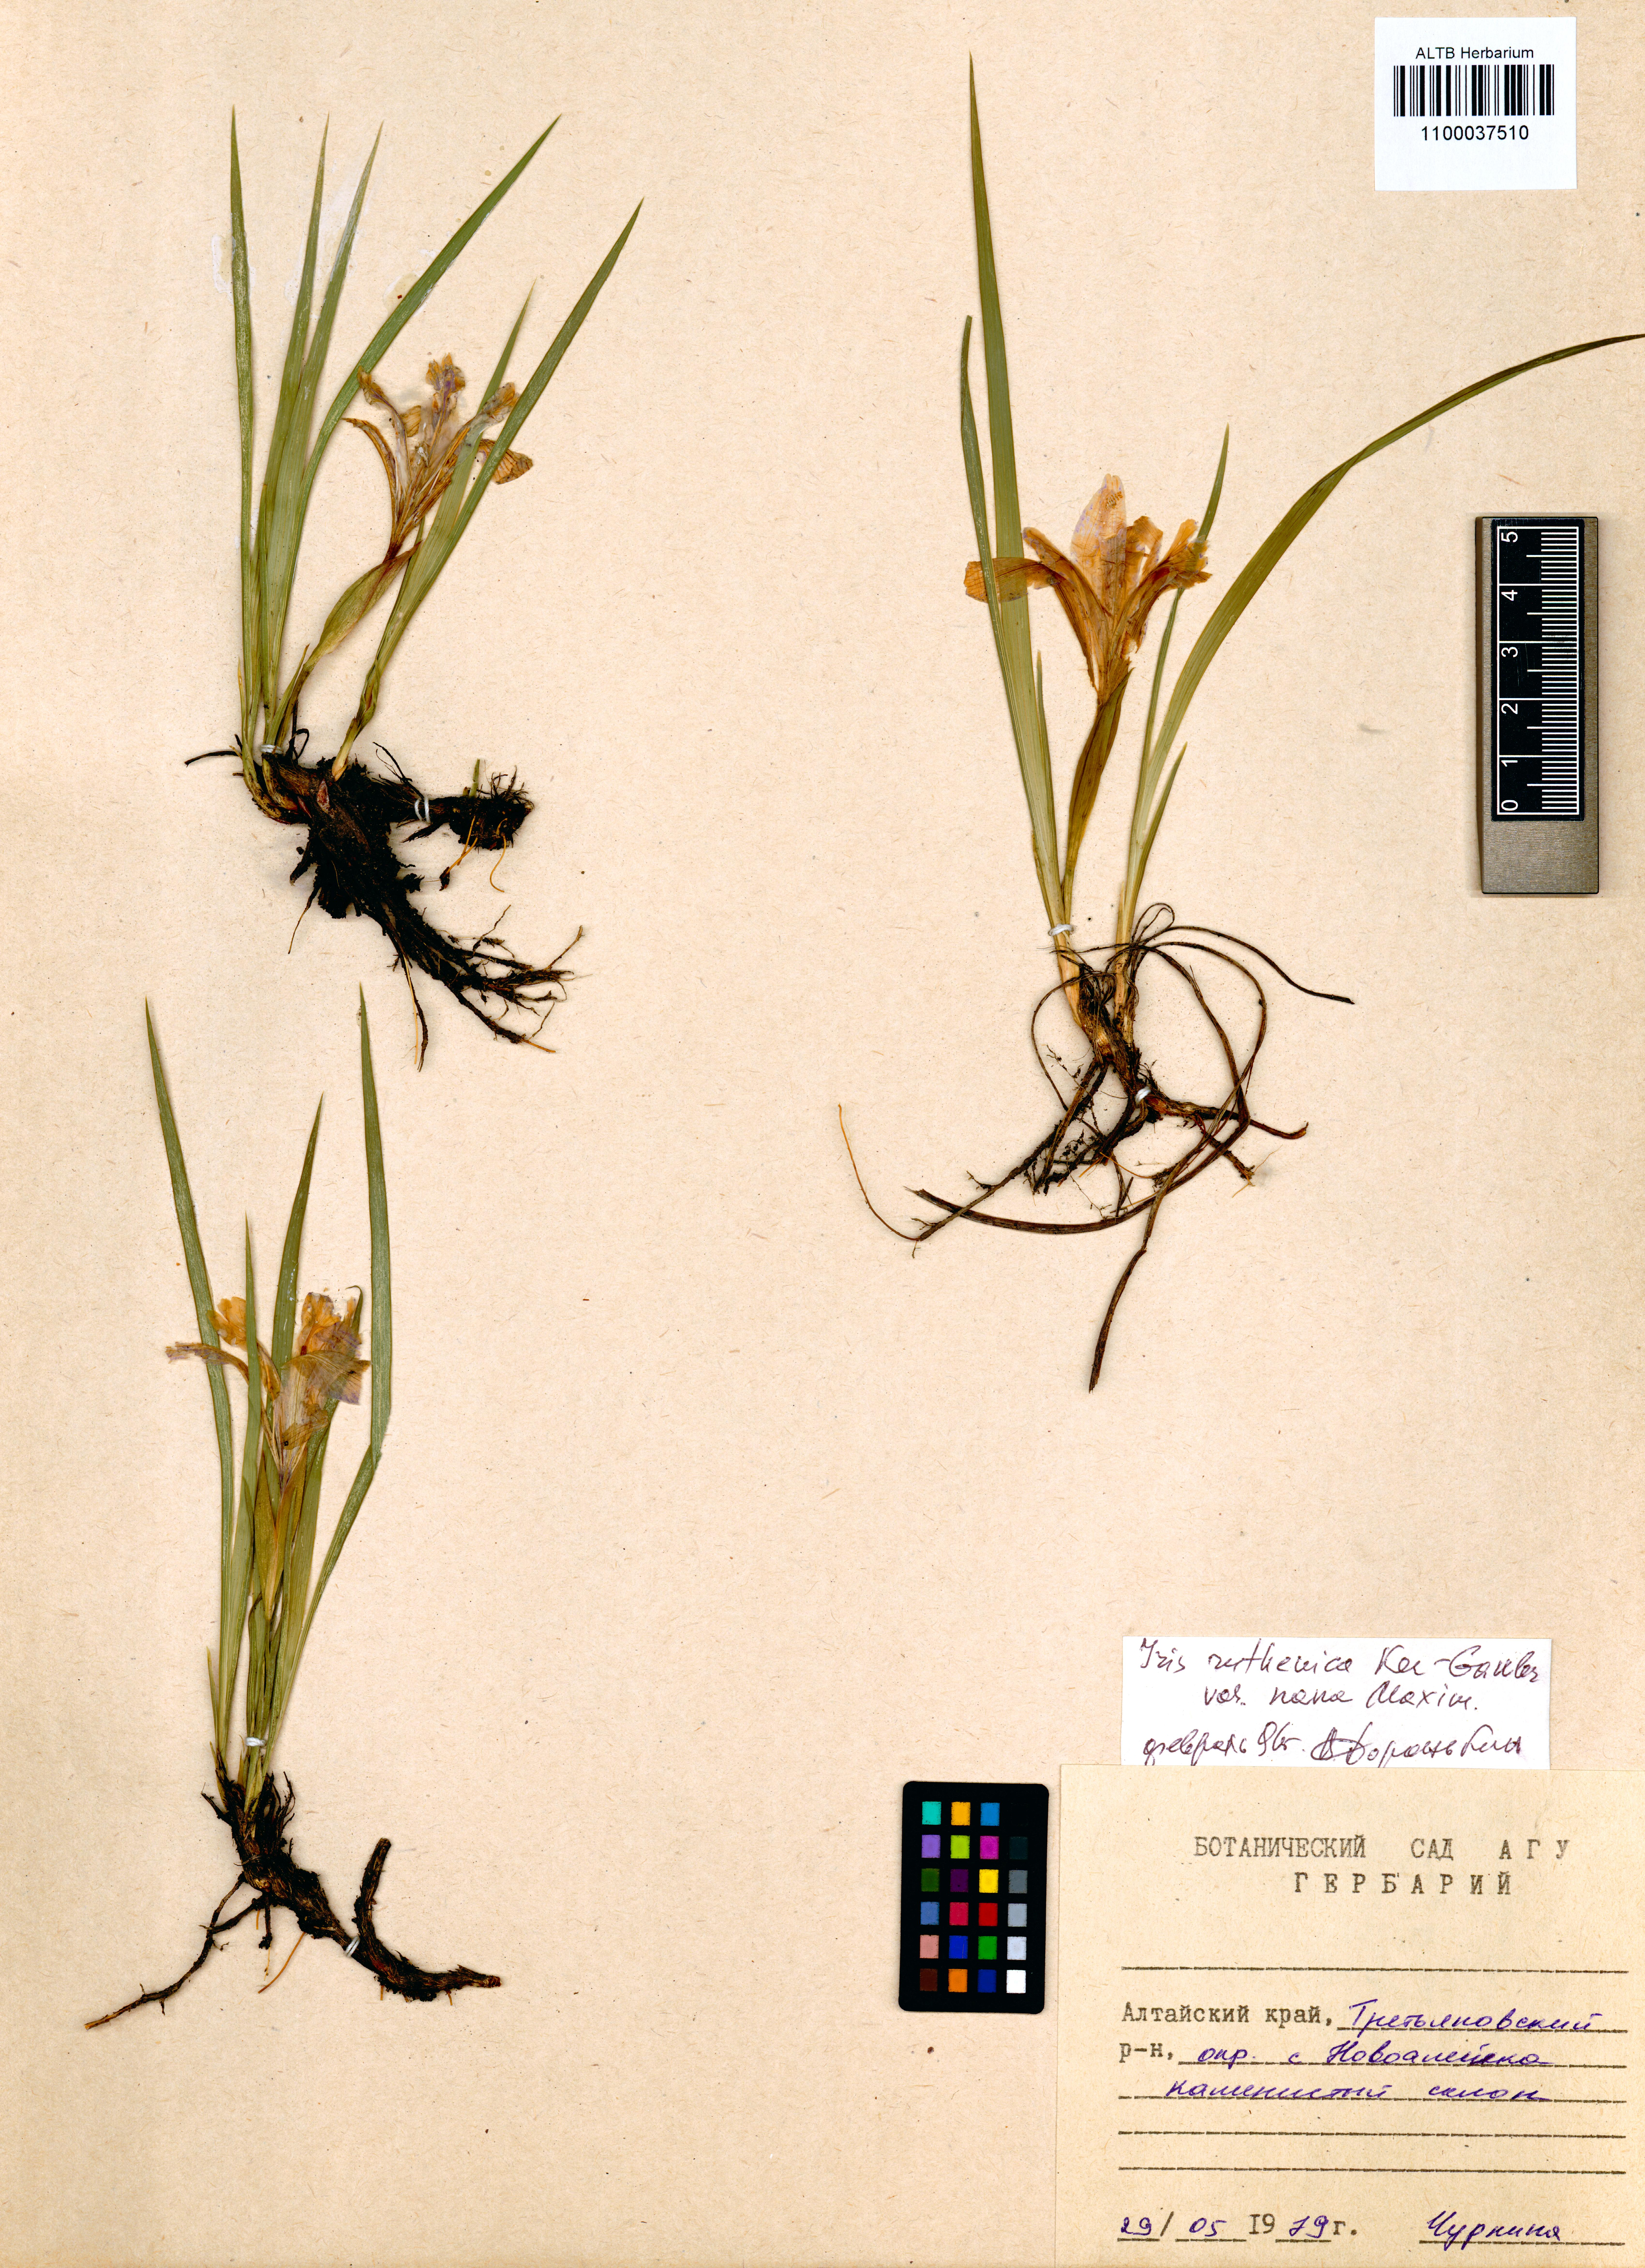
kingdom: Plantae
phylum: Tracheophyta
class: Liliopsida
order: Asparagales
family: Iridaceae
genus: Iris
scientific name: Iris ruthenica
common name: Purple-bract iris
